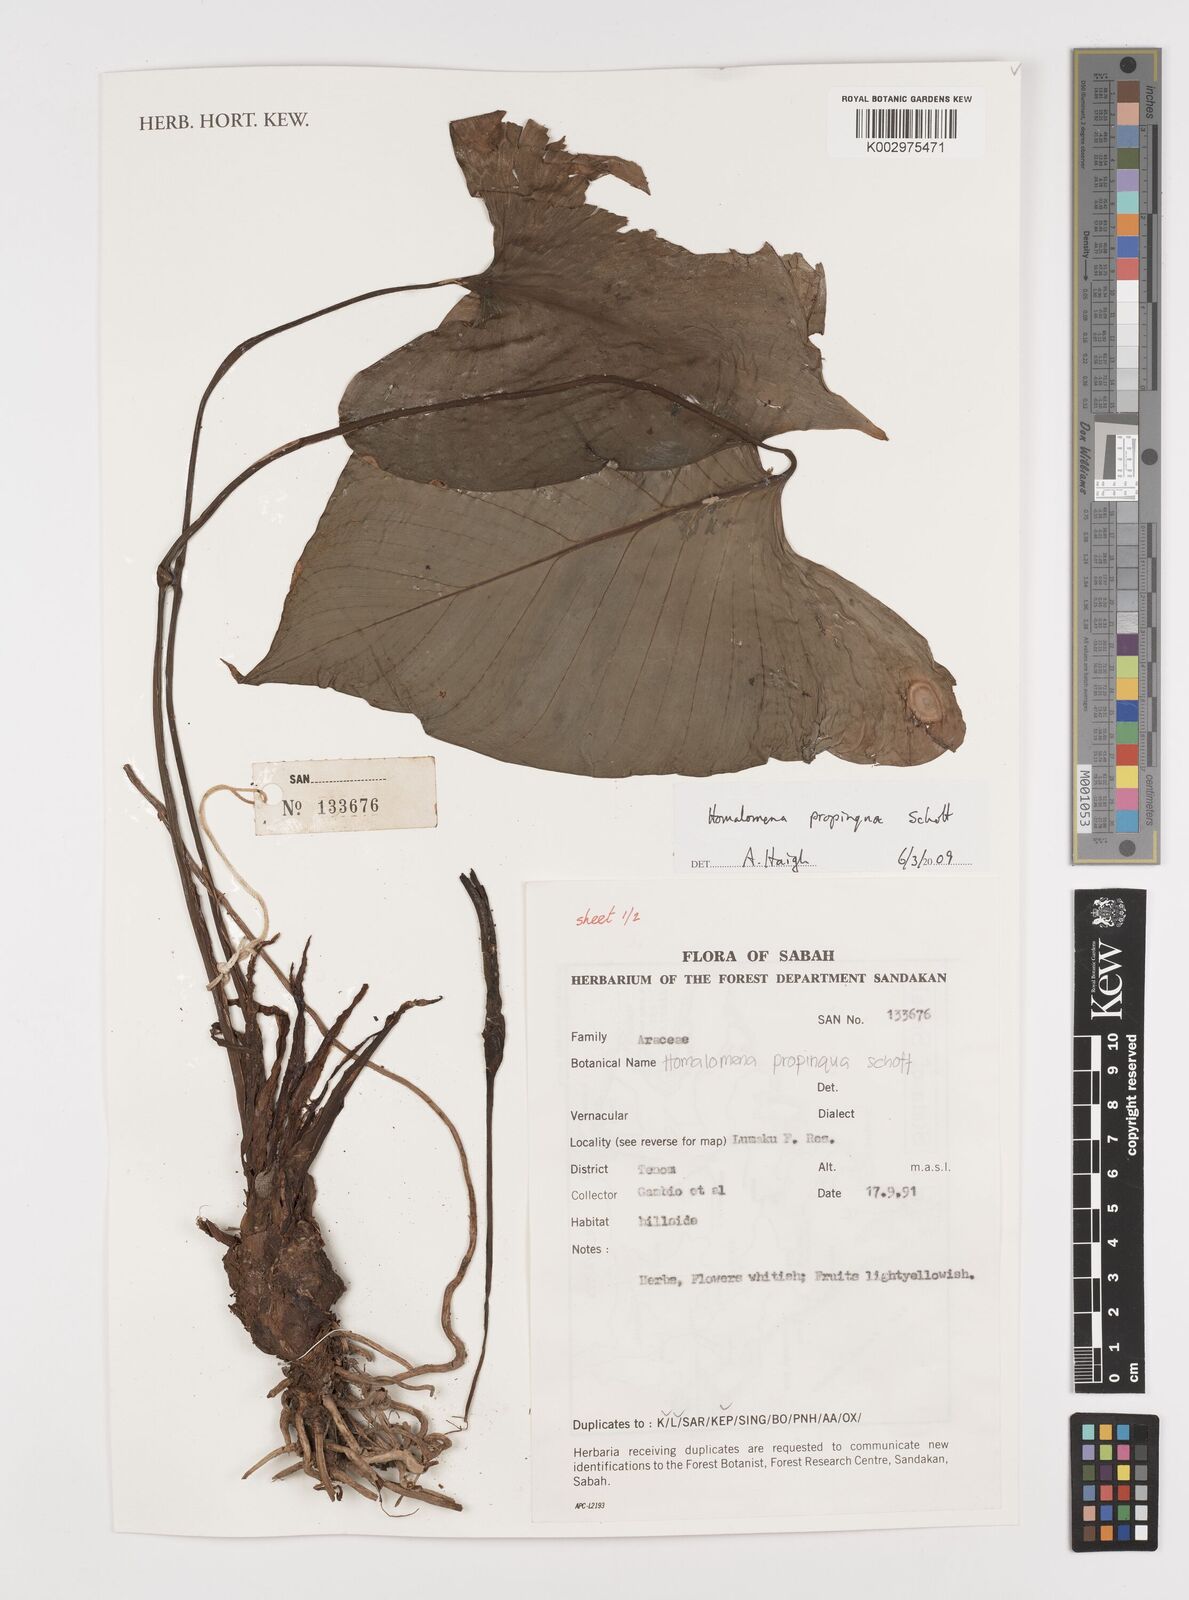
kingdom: Plantae
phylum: Tracheophyta
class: Liliopsida
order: Alismatales
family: Araceae
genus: Homalomena
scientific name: Homalomena humilis
